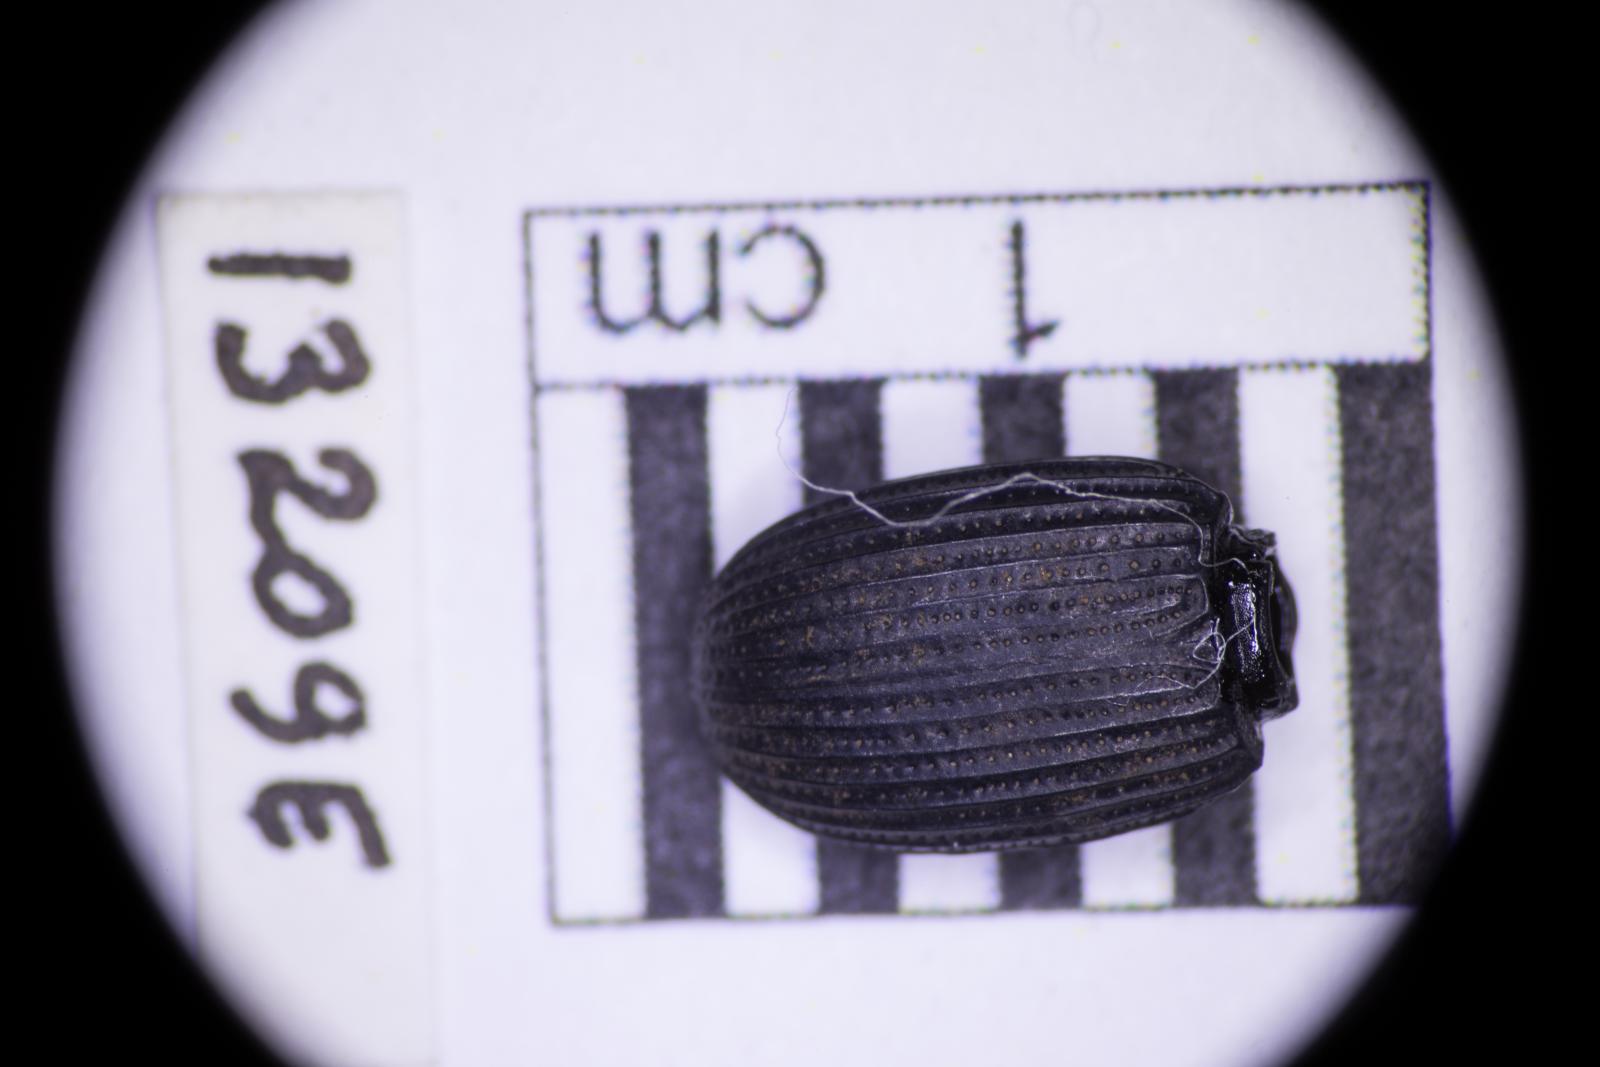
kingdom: Animalia
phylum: Arthropoda
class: Insecta
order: Coleoptera
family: Tenebrionidae
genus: Apsena
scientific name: Apsena laticornis
